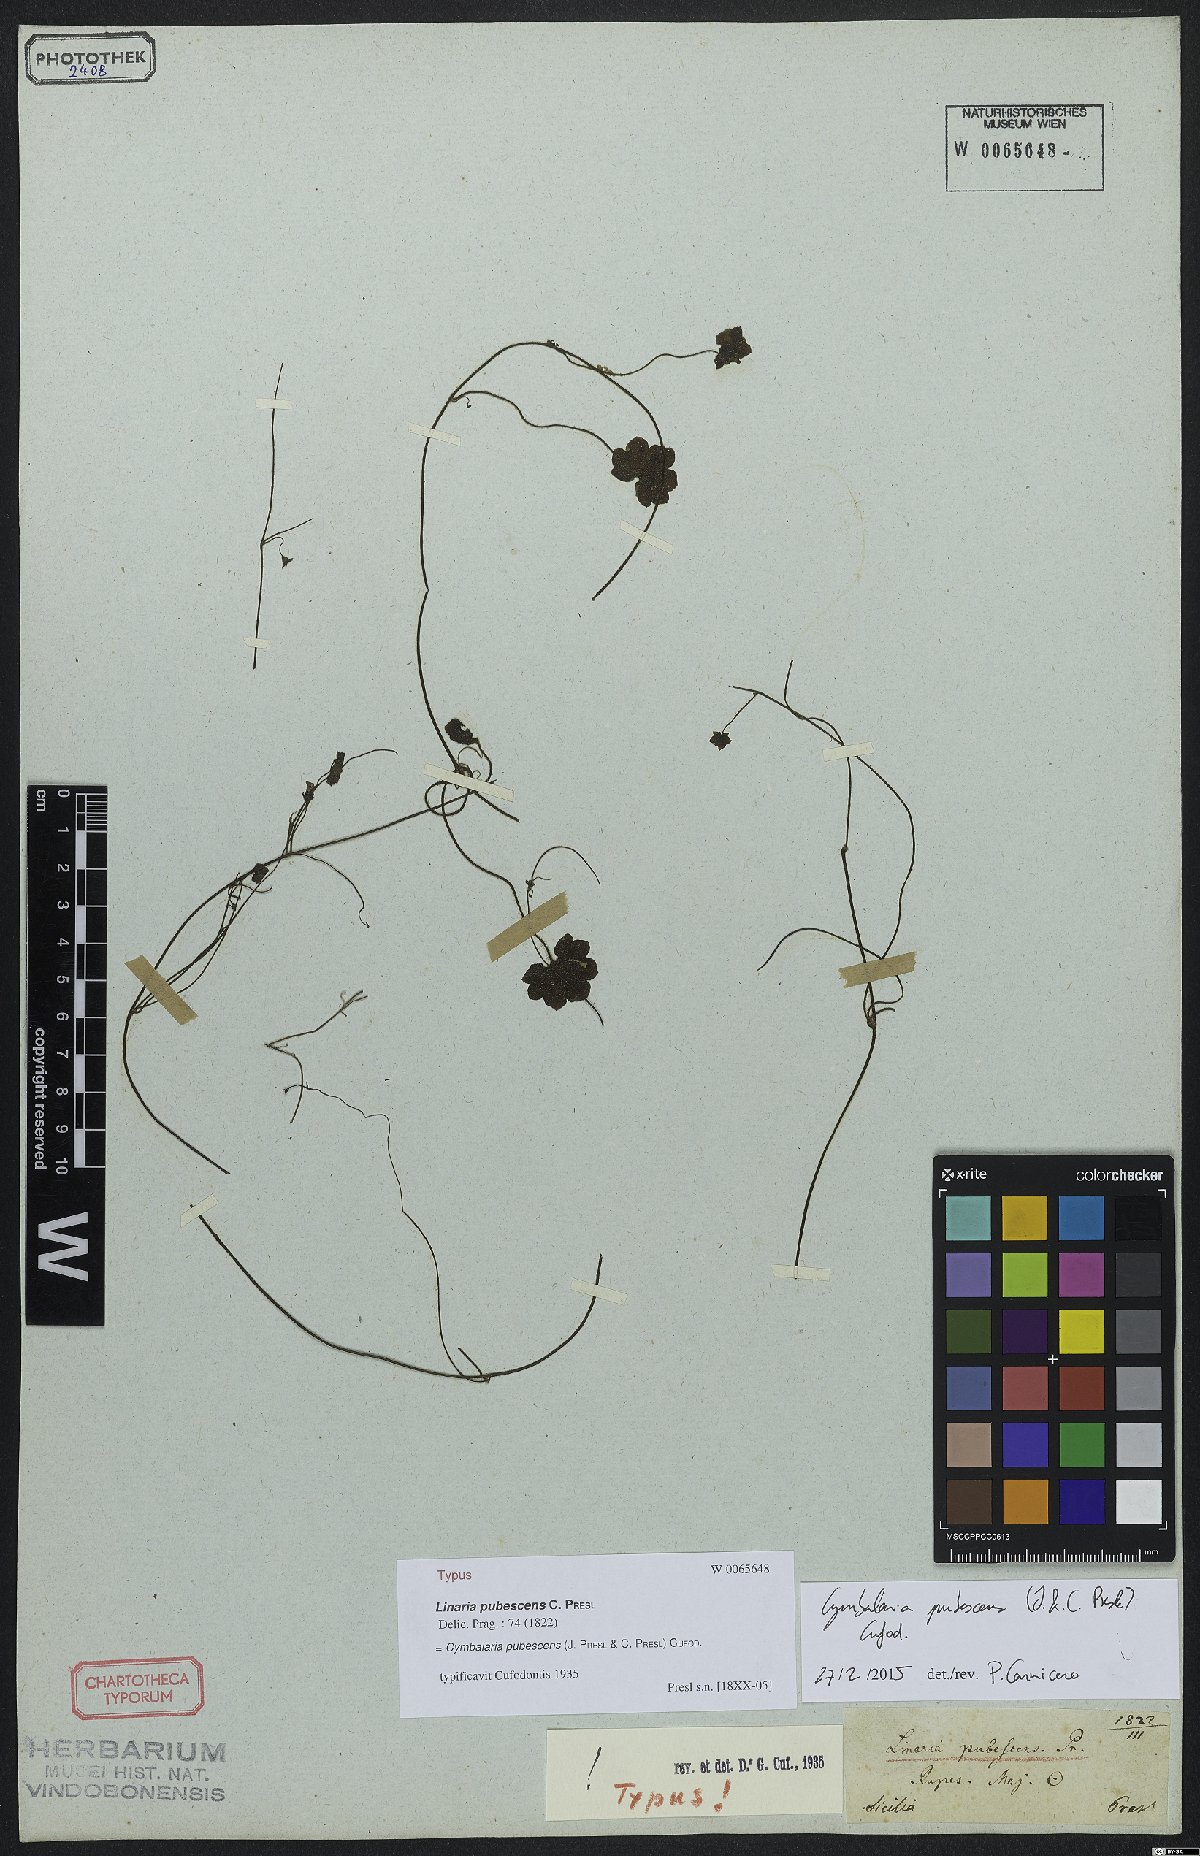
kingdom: Plantae
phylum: Tracheophyta
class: Magnoliopsida
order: Lamiales
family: Plantaginaceae
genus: Cymbalaria
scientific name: Cymbalaria pubescens
